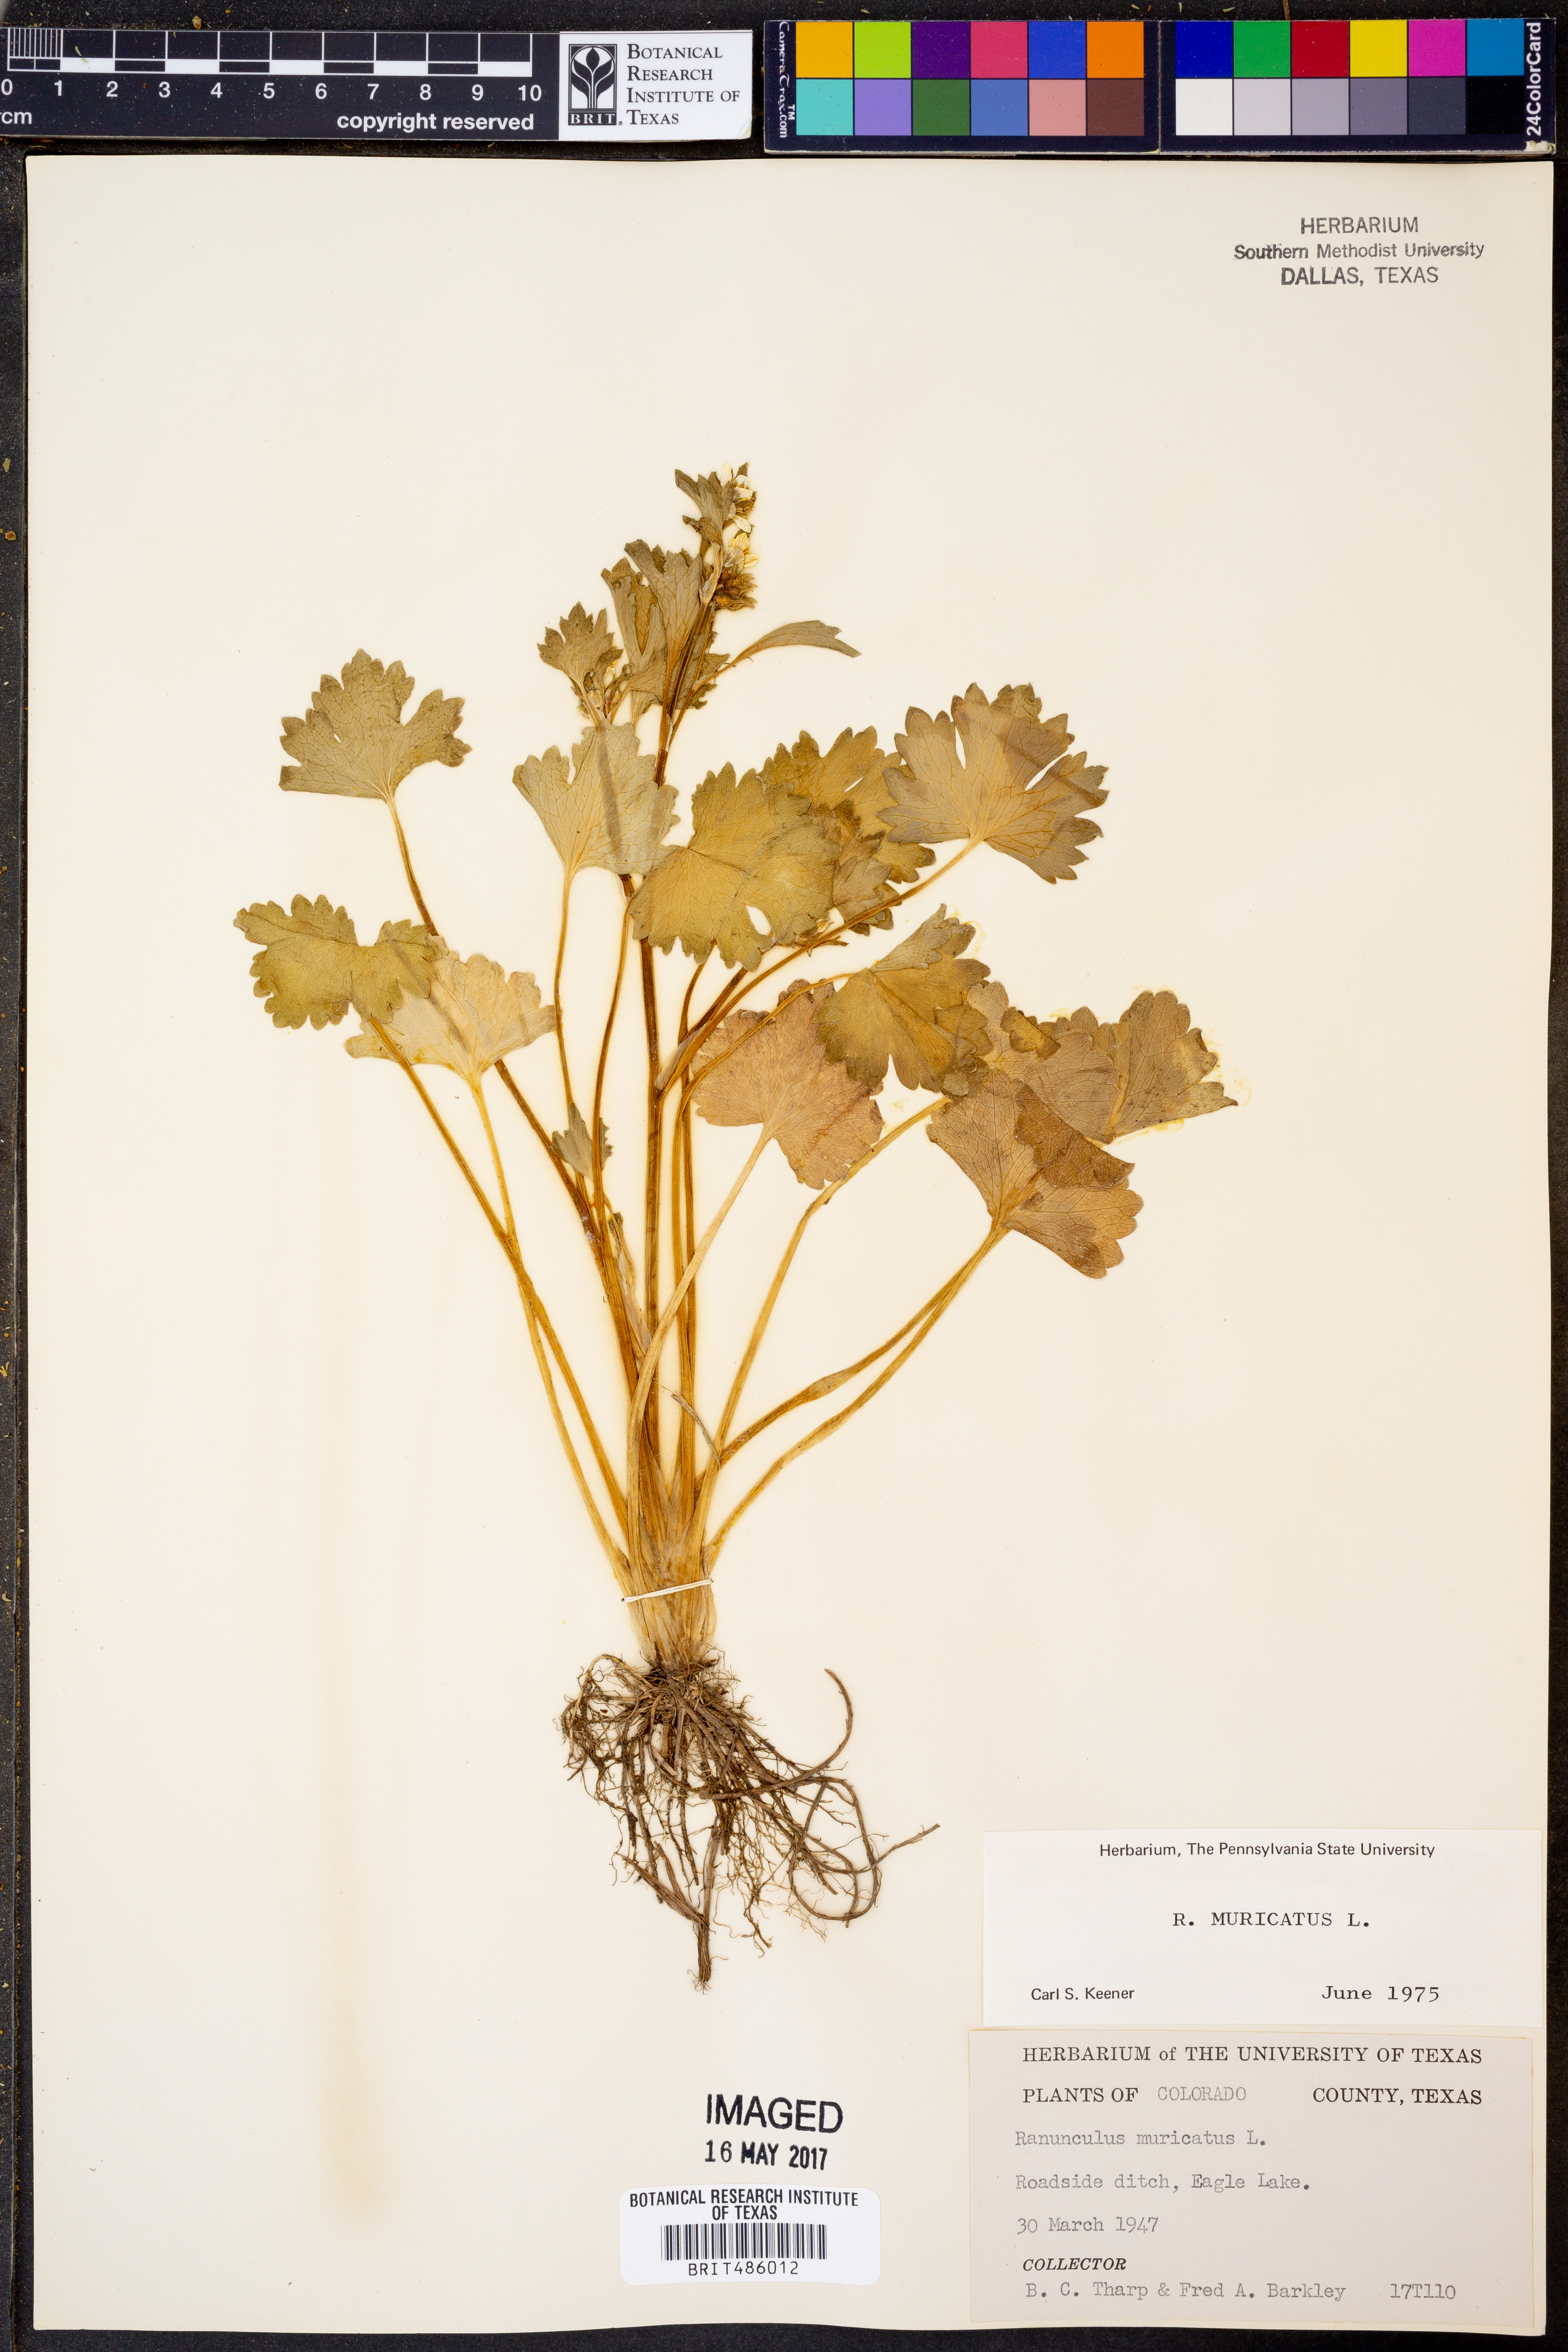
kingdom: Plantae
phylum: Tracheophyta
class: Magnoliopsida
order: Ranunculales
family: Ranunculaceae
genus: Ranunculus
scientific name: Ranunculus muricatus
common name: Rough-fruited buttercup
